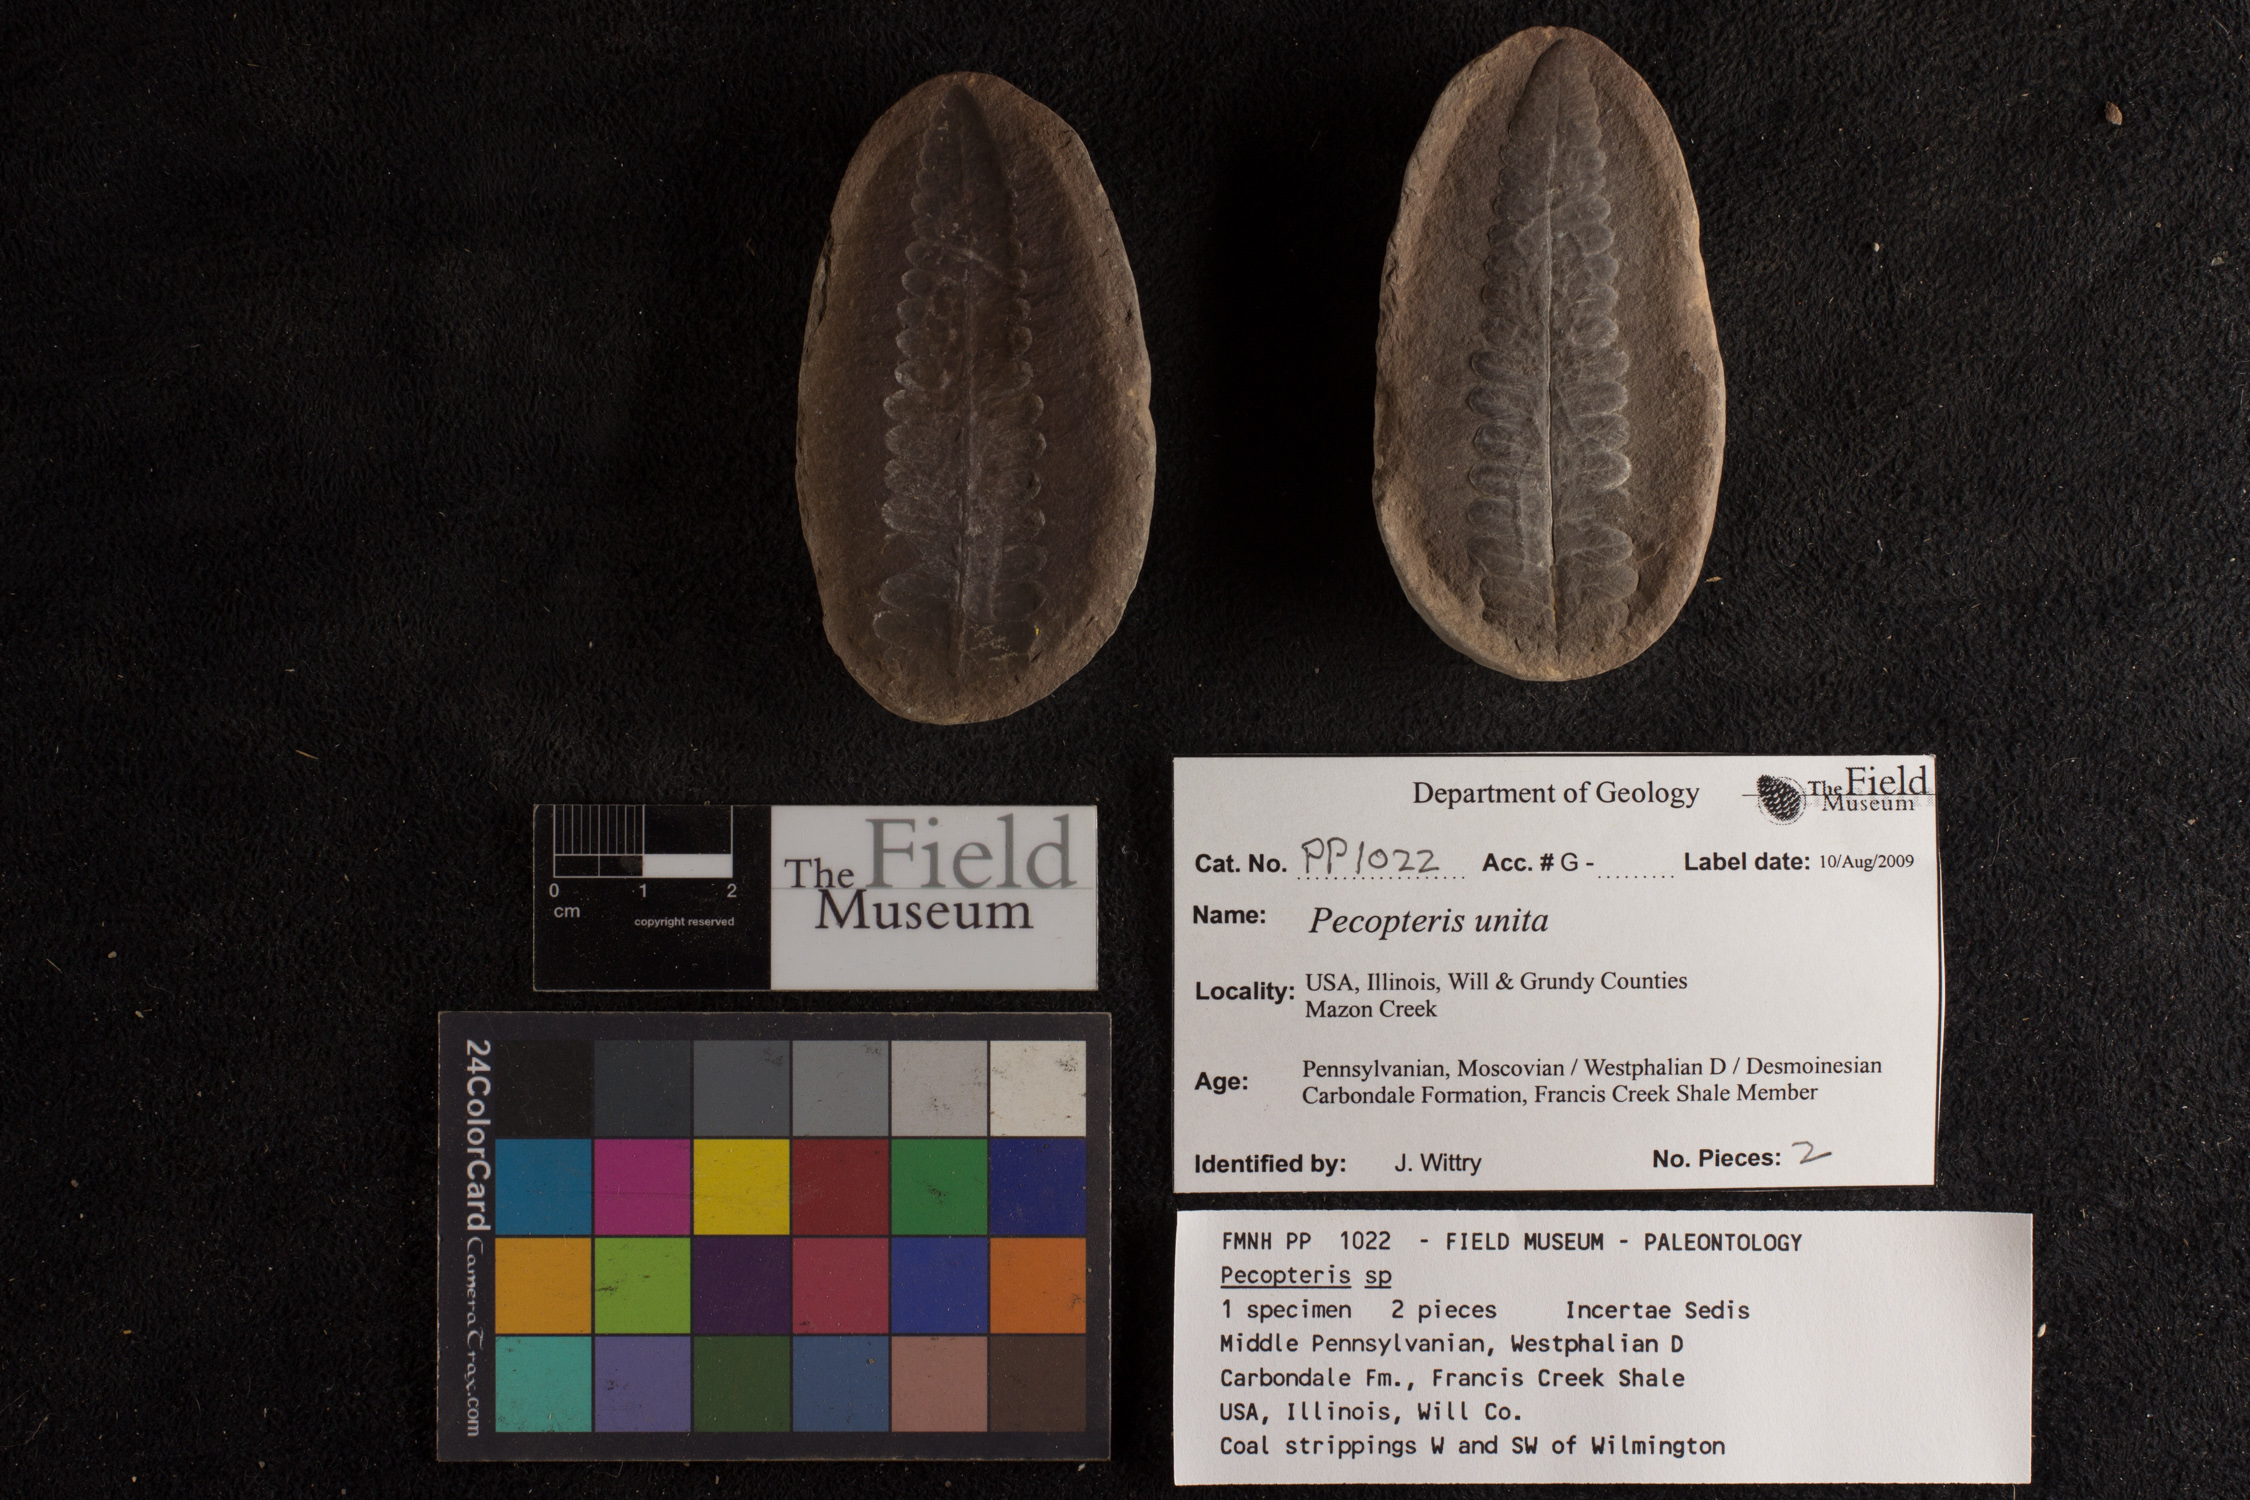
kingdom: Plantae
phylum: Tracheophyta
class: Polypodiopsida
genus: Diplazites
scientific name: Diplazites
